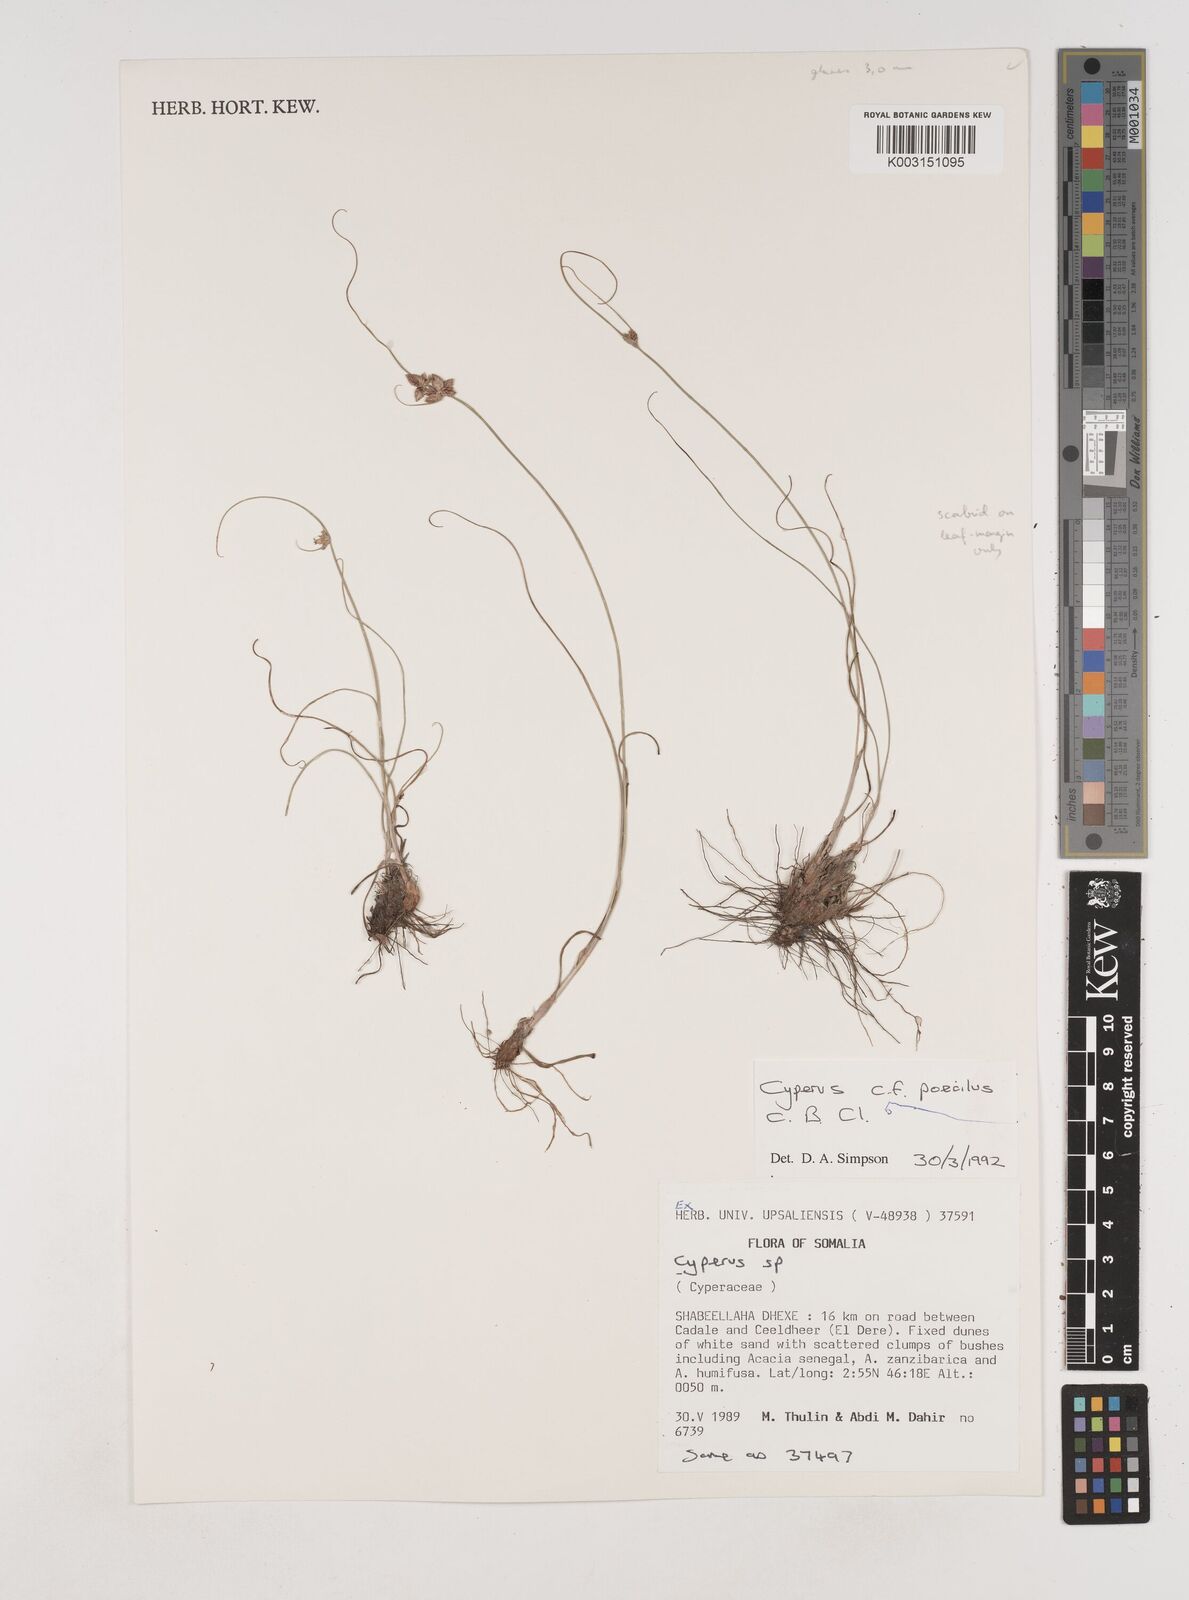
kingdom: Plantae
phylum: Tracheophyta
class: Liliopsida
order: Poales
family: Cyperaceae
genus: Cyperus
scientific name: Cyperus poecilus
